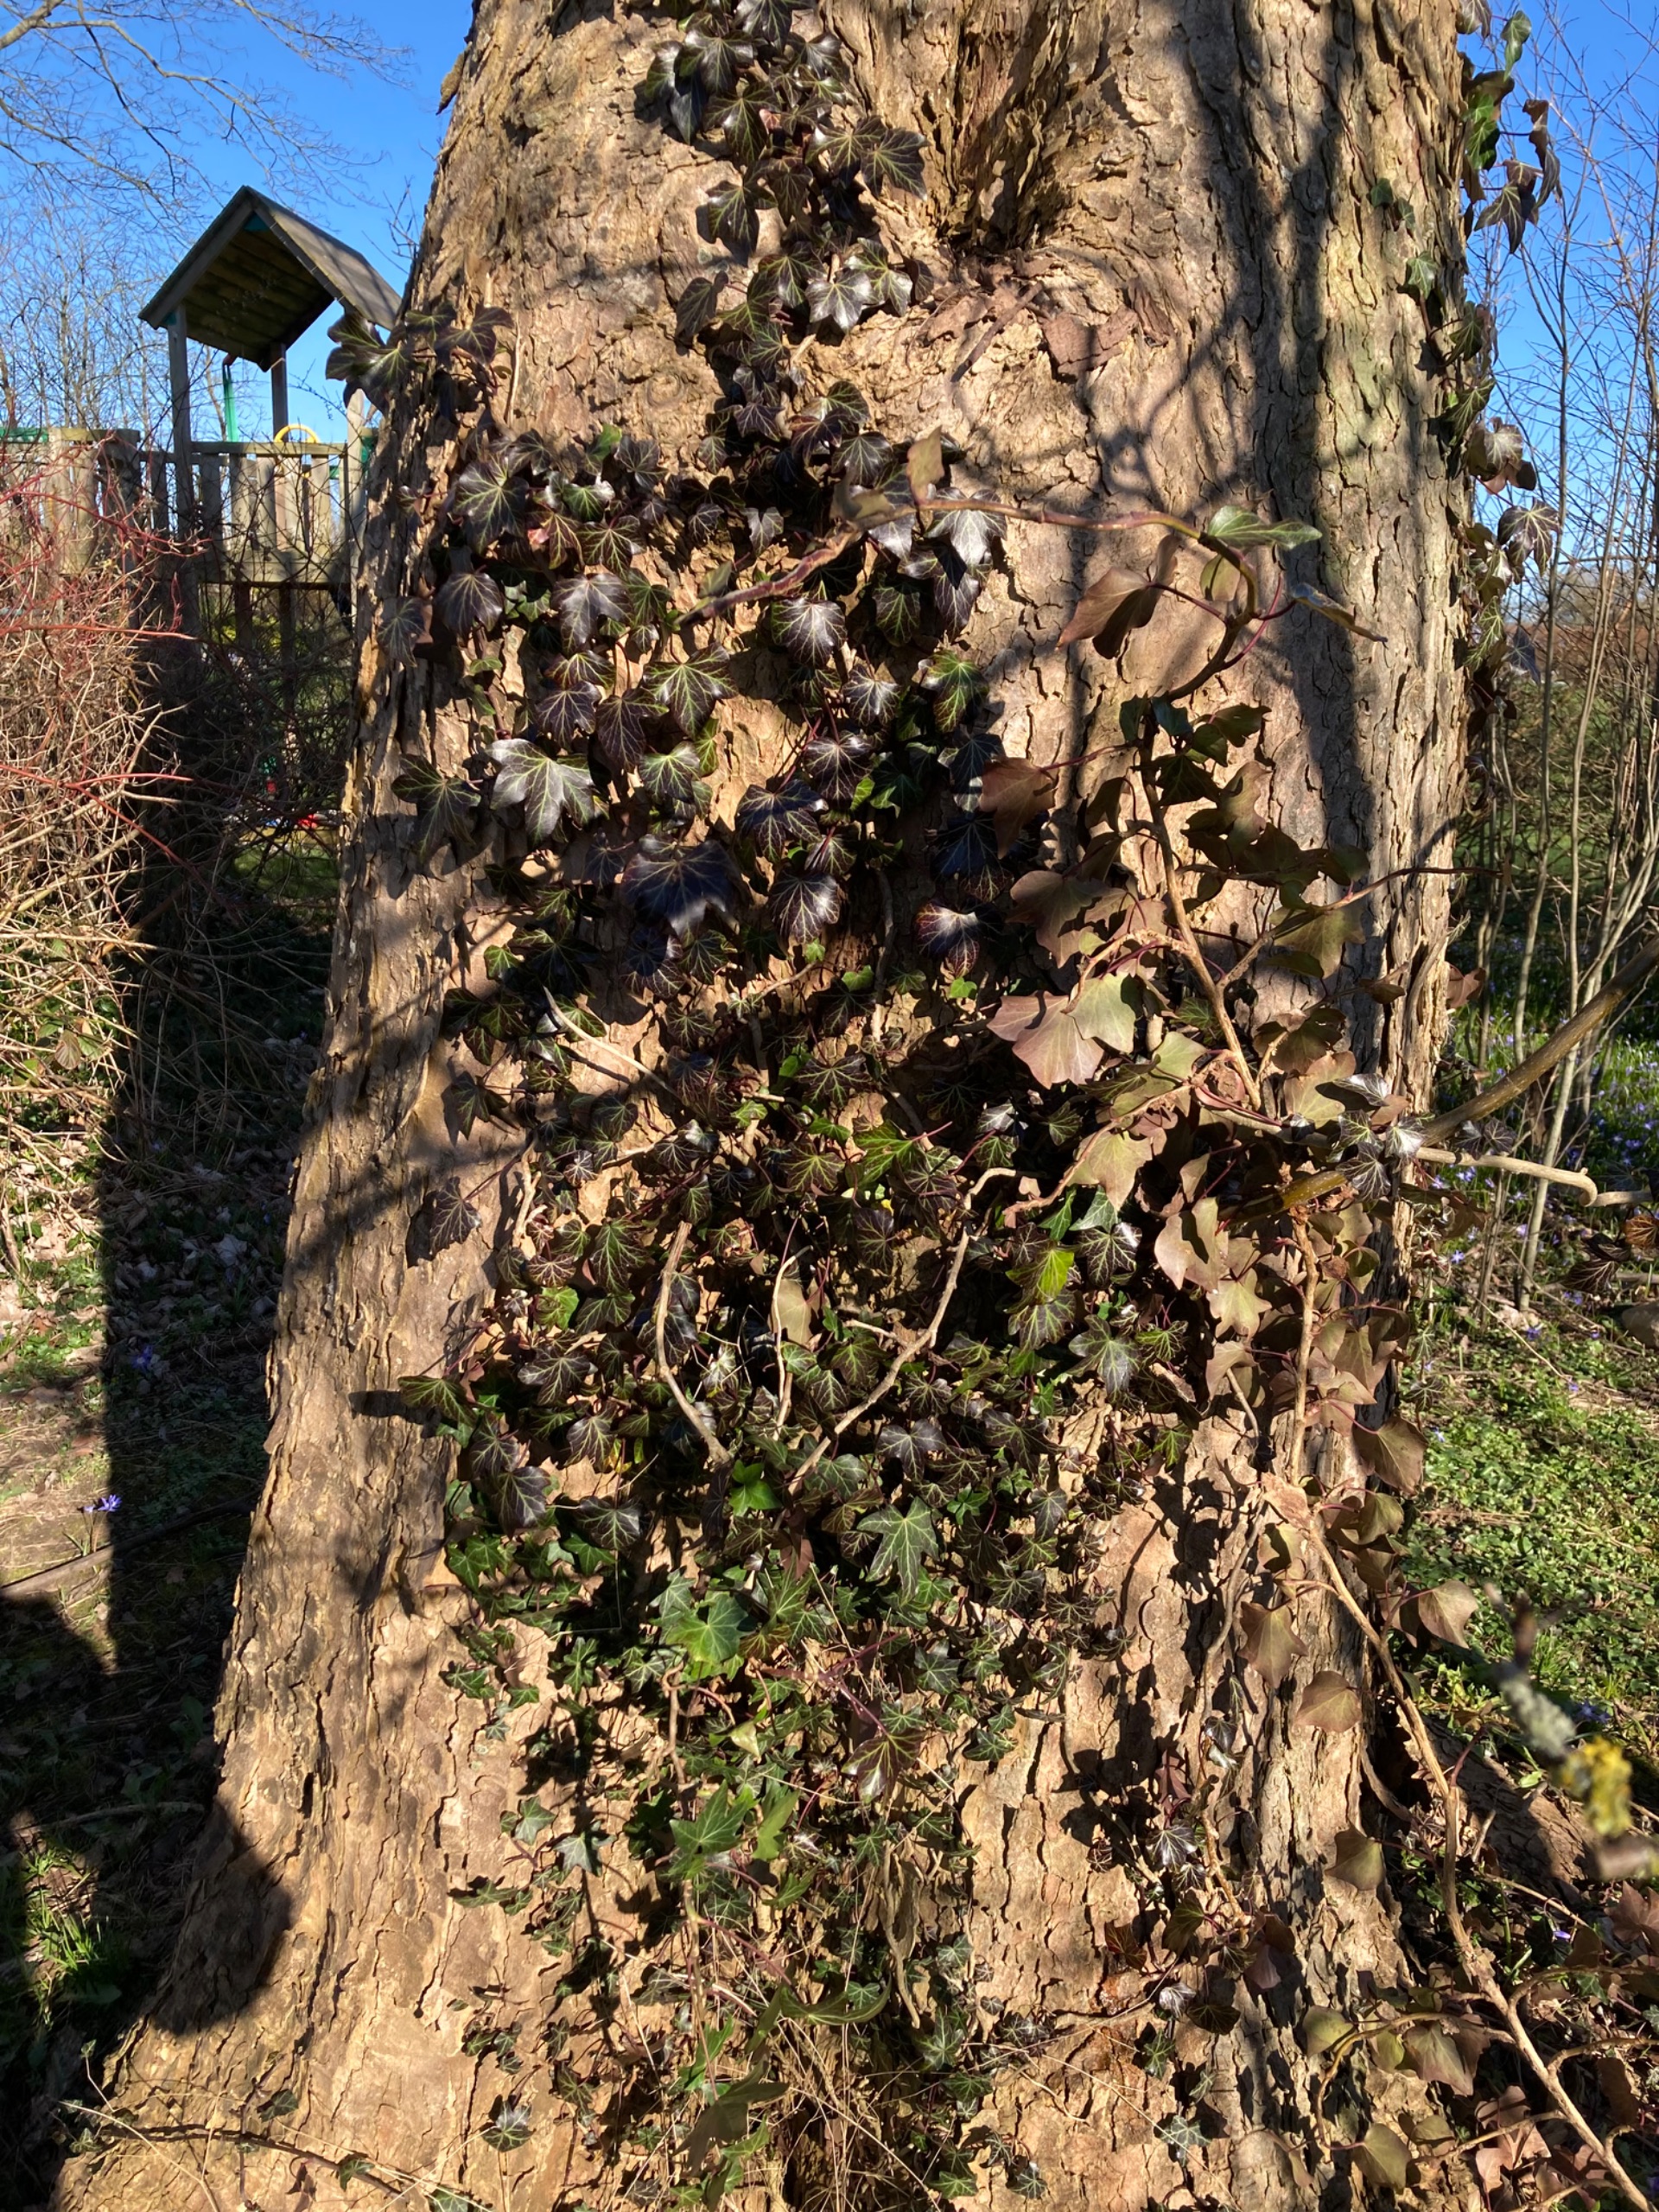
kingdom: Plantae
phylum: Tracheophyta
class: Magnoliopsida
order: Apiales
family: Araliaceae
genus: Hedera
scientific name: Hedera helix
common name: Vedbend
